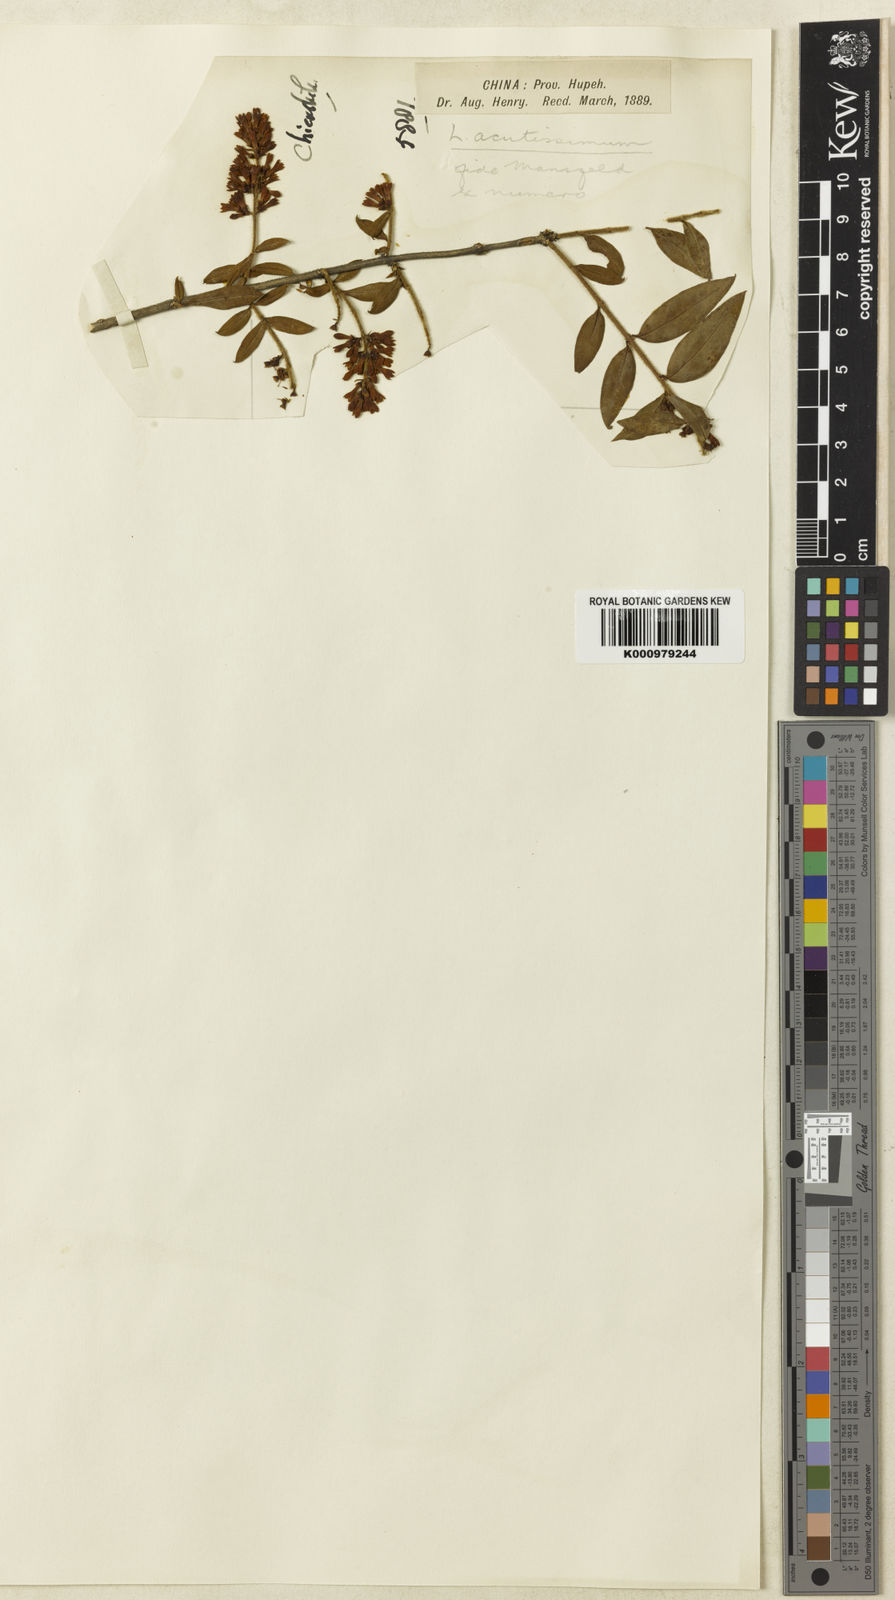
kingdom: Plantae
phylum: Tracheophyta
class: Magnoliopsida
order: Lamiales
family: Oleaceae
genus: Ligustrum
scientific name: Ligustrum tschonoskii
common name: Tschonosky privet
